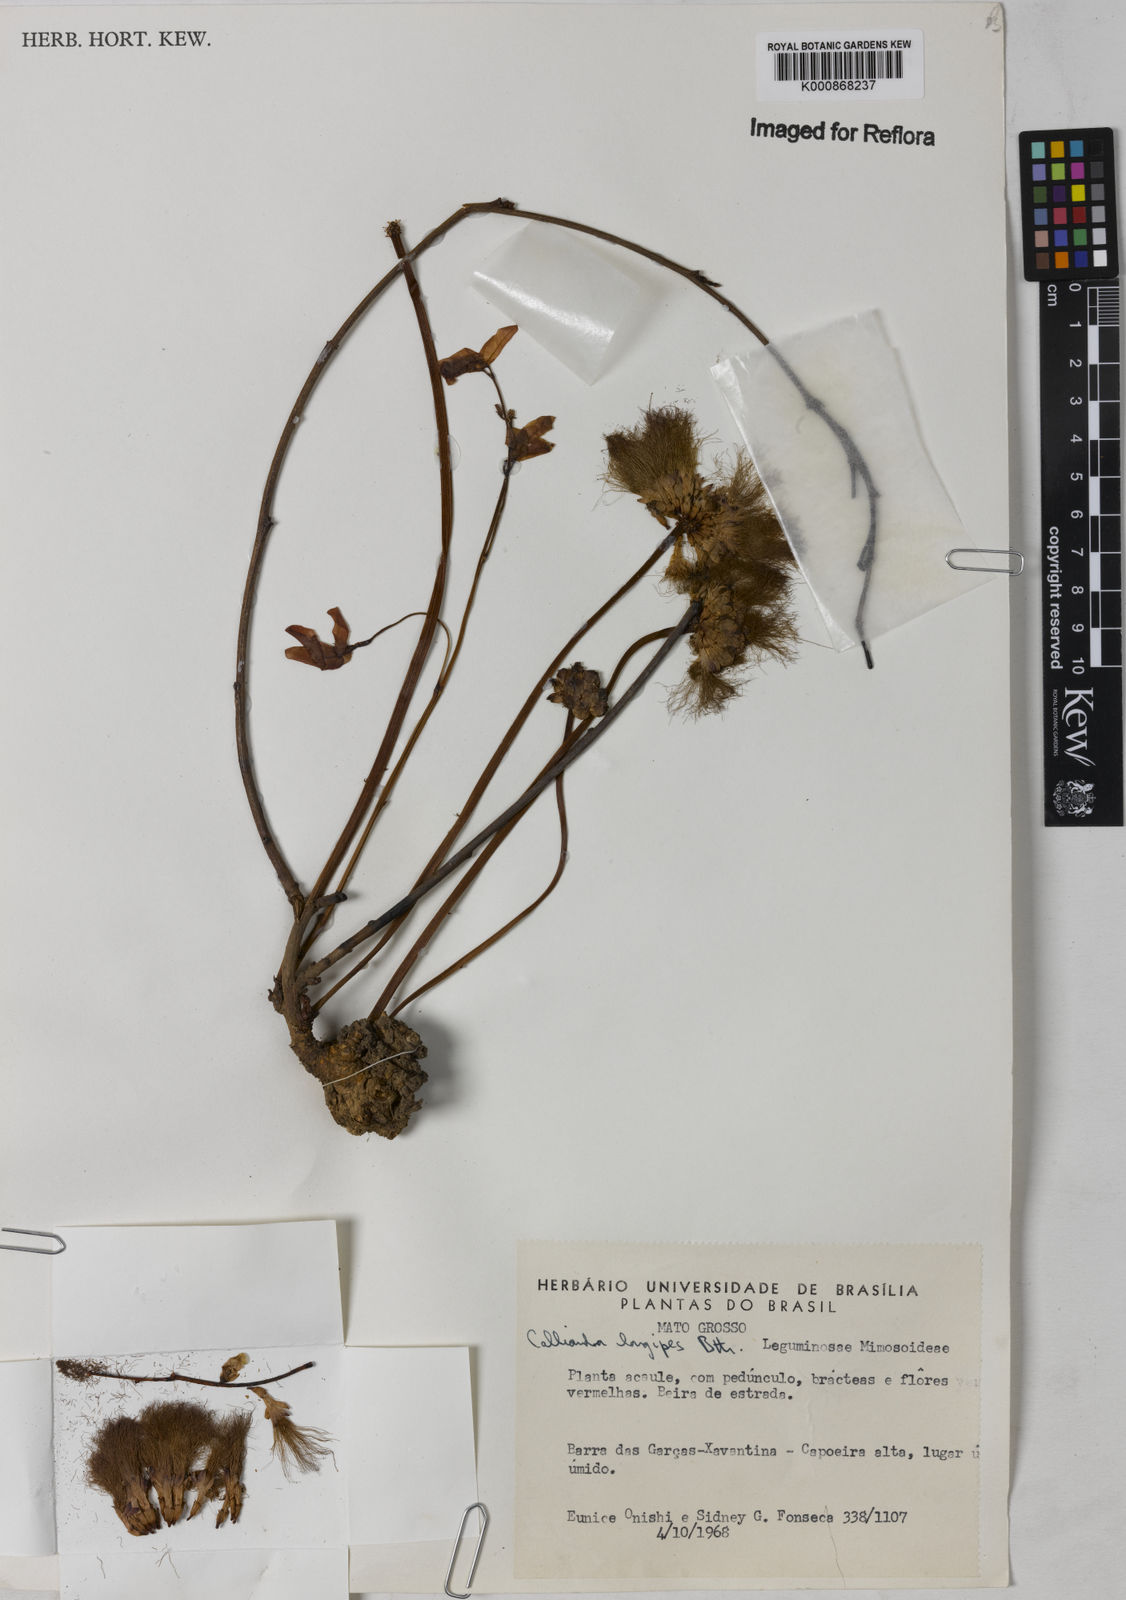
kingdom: Plantae
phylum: Tracheophyta
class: Magnoliopsida
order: Fabales
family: Fabaceae
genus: Calliandra
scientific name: Calliandra longipes
